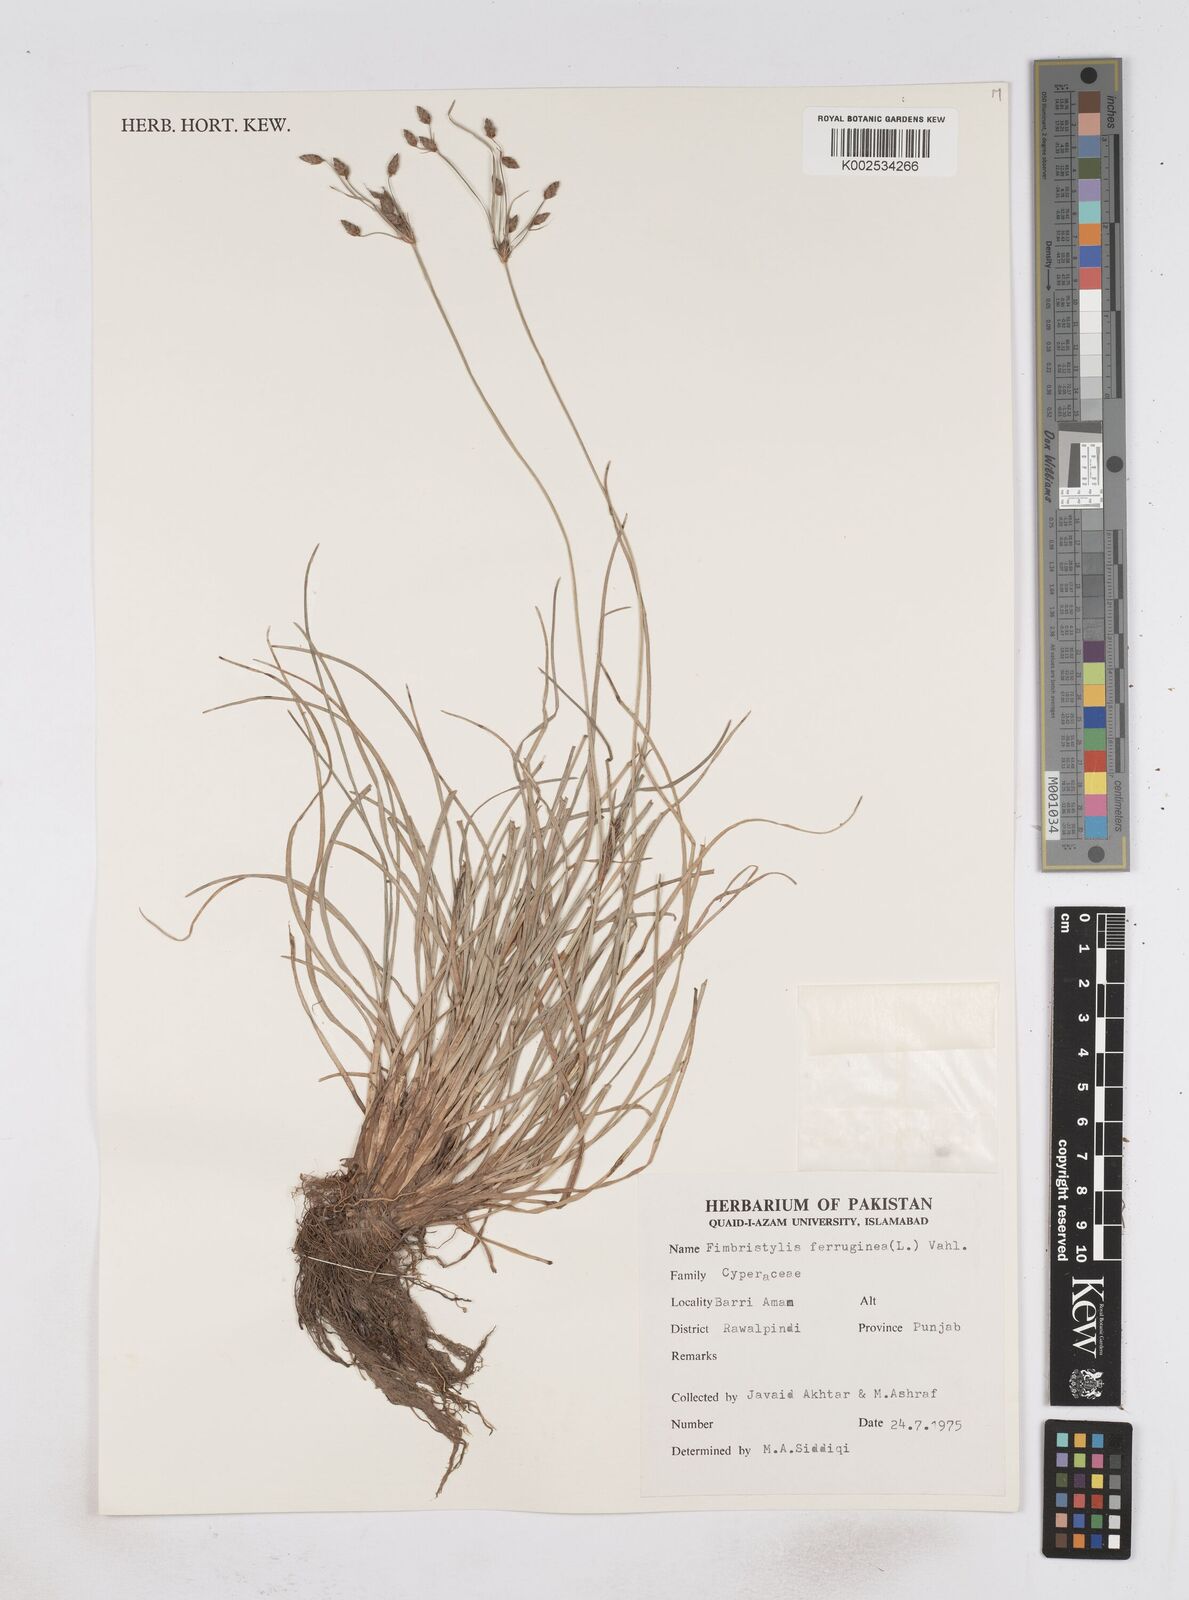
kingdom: Plantae
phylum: Tracheophyta
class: Liliopsida
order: Poales
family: Cyperaceae
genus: Fimbristylis
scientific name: Fimbristylis ferruginea
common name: West indian fimbry
